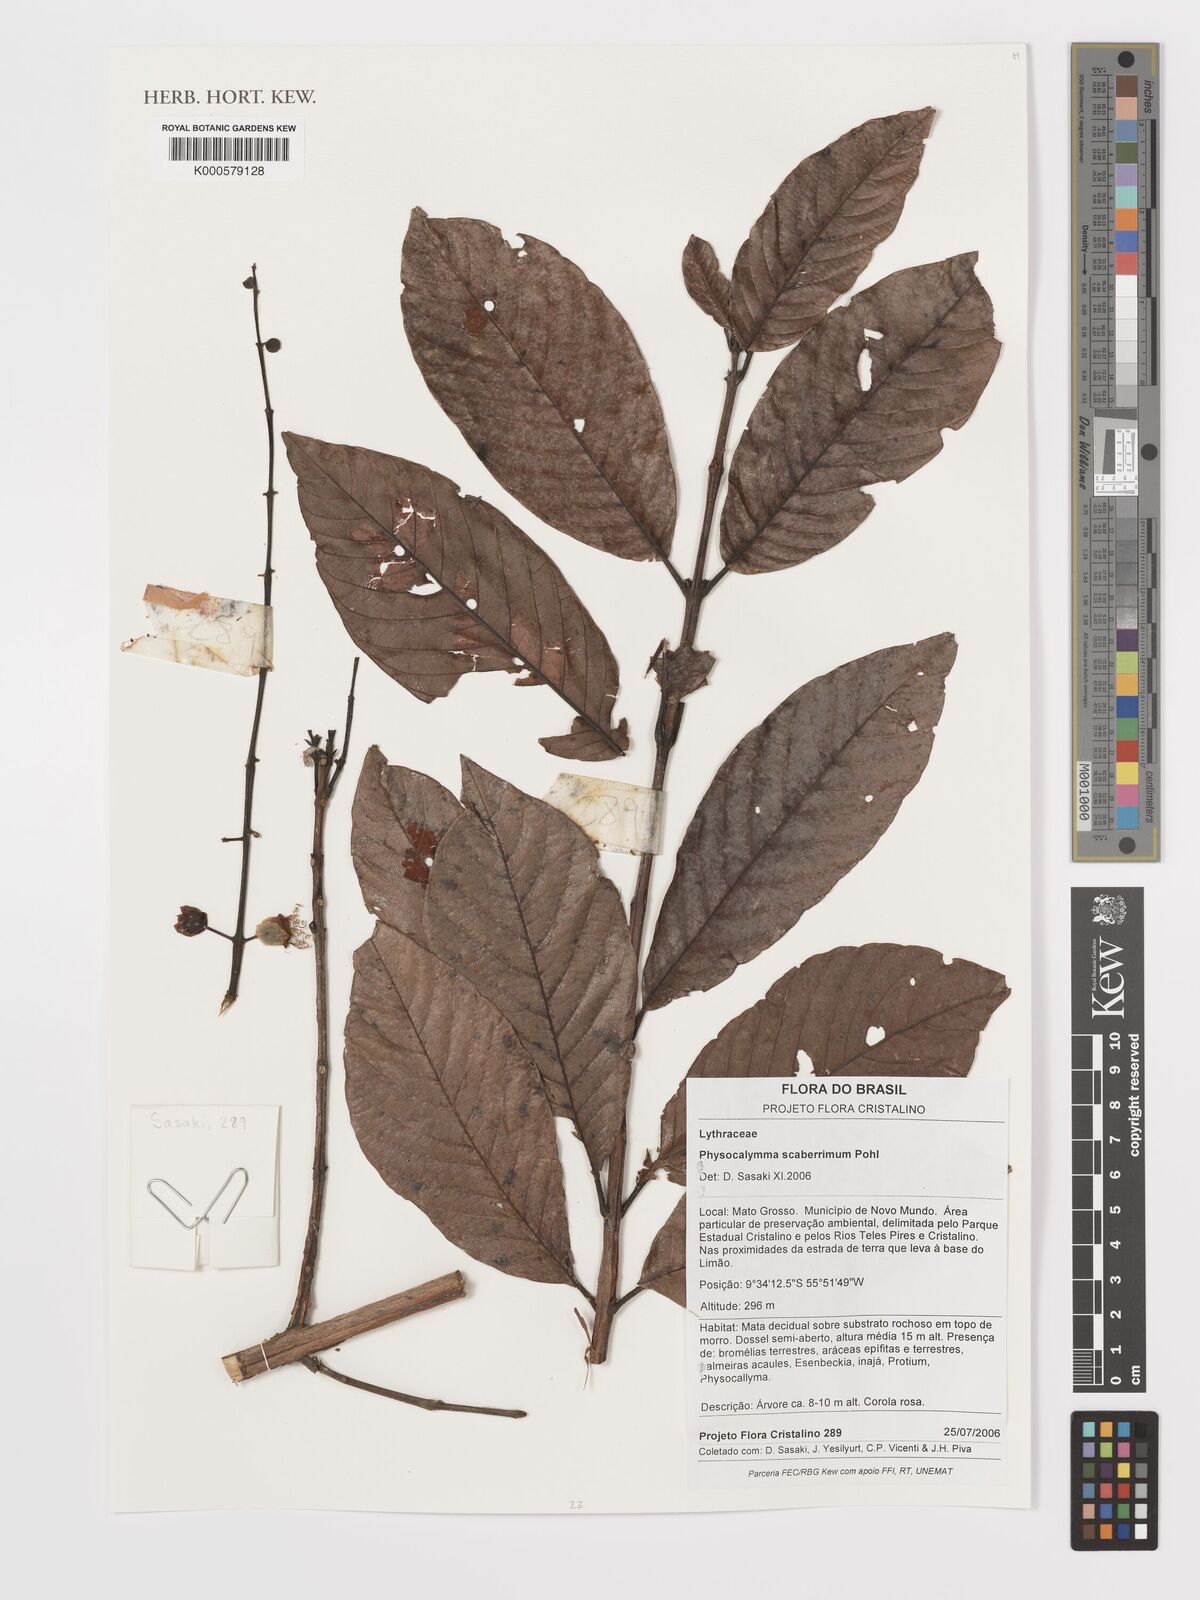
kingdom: Plantae
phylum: Tracheophyta
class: Magnoliopsida
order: Myrtales
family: Lythraceae
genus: Physocalymma
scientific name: Physocalymma scaberrimum
